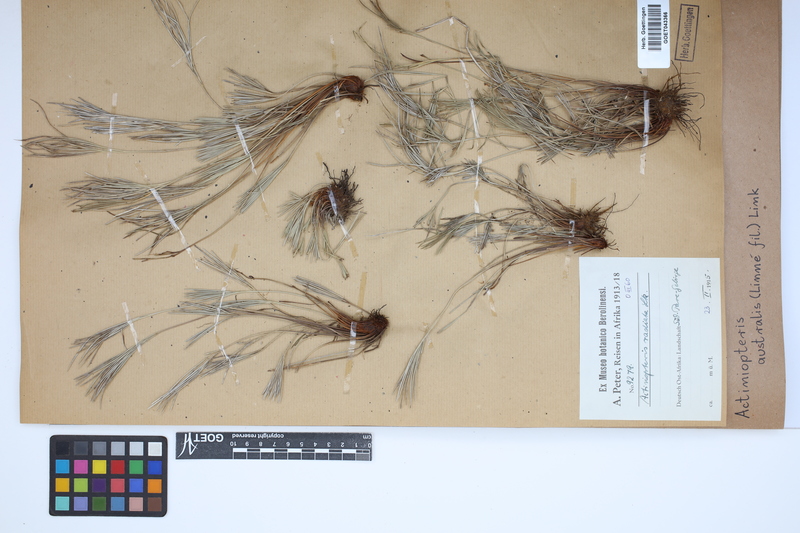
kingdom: Plantae
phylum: Tracheophyta
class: Polypodiopsida
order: Polypodiales
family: Pteridaceae
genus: Actiniopteris
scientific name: Actiniopteris australis
